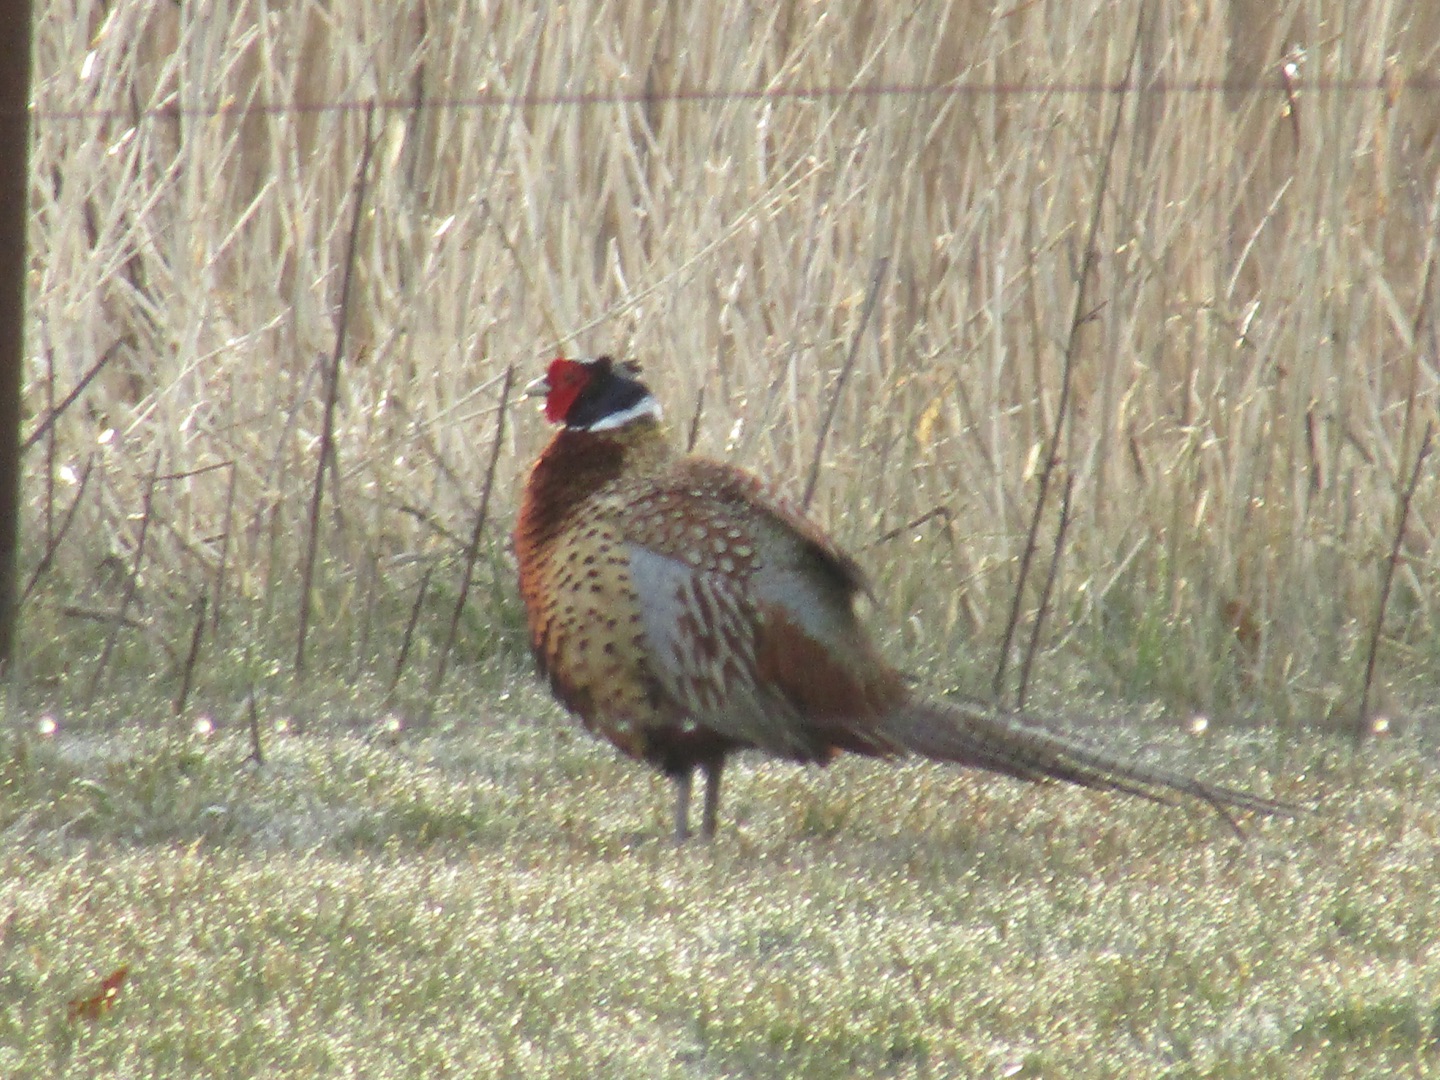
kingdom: Animalia
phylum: Chordata
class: Aves
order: Galliformes
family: Phasianidae
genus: Phasianus
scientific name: Phasianus colchicus
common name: Fasan
